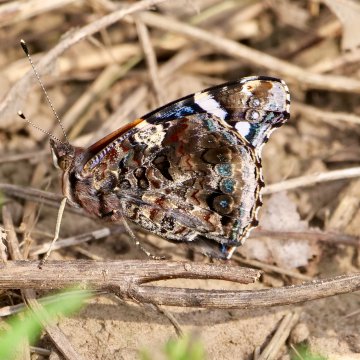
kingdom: Animalia
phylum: Arthropoda
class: Insecta
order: Lepidoptera
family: Nymphalidae
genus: Vanessa
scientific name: Vanessa atalanta
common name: Red Admiral
